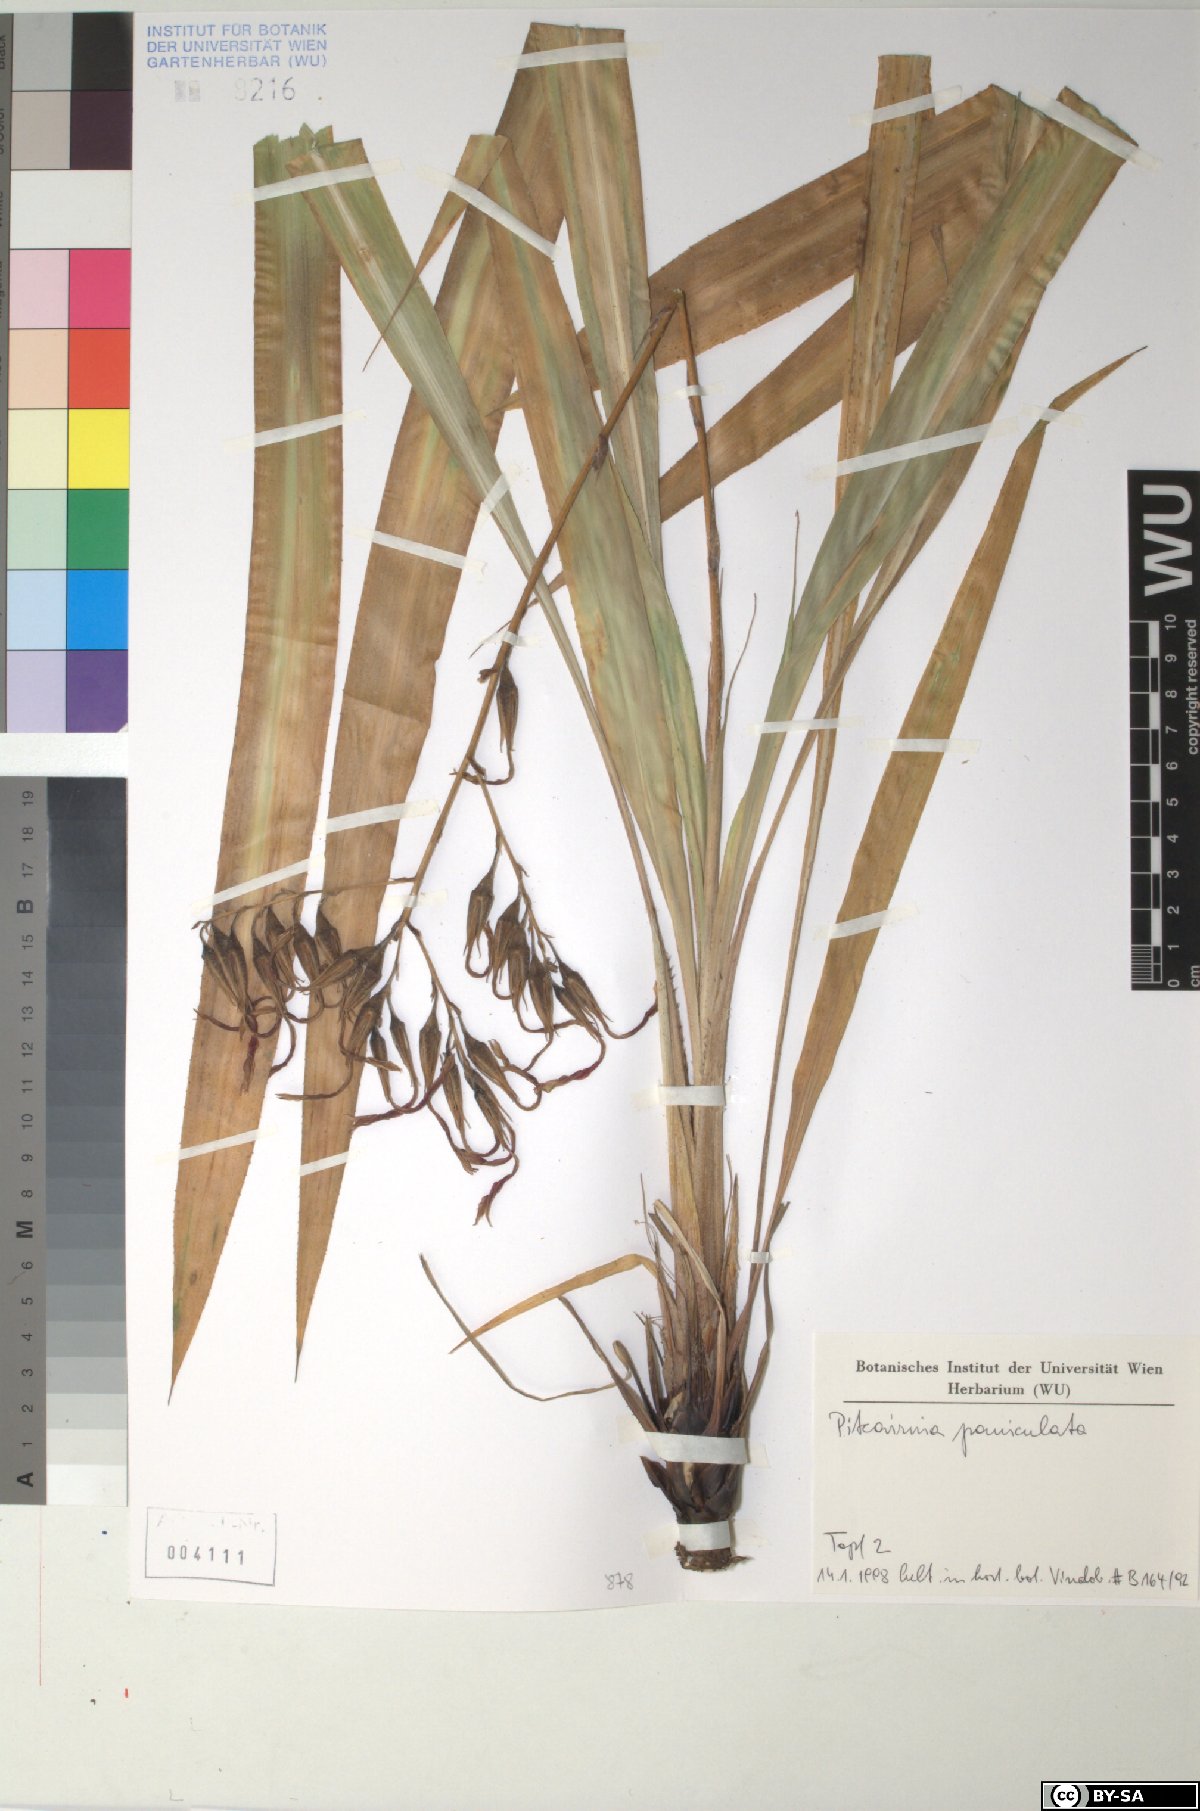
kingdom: Plantae
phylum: Tracheophyta
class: Liliopsida
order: Poales
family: Bromeliaceae
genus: Pitcairnia
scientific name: Pitcairnia paniculata
